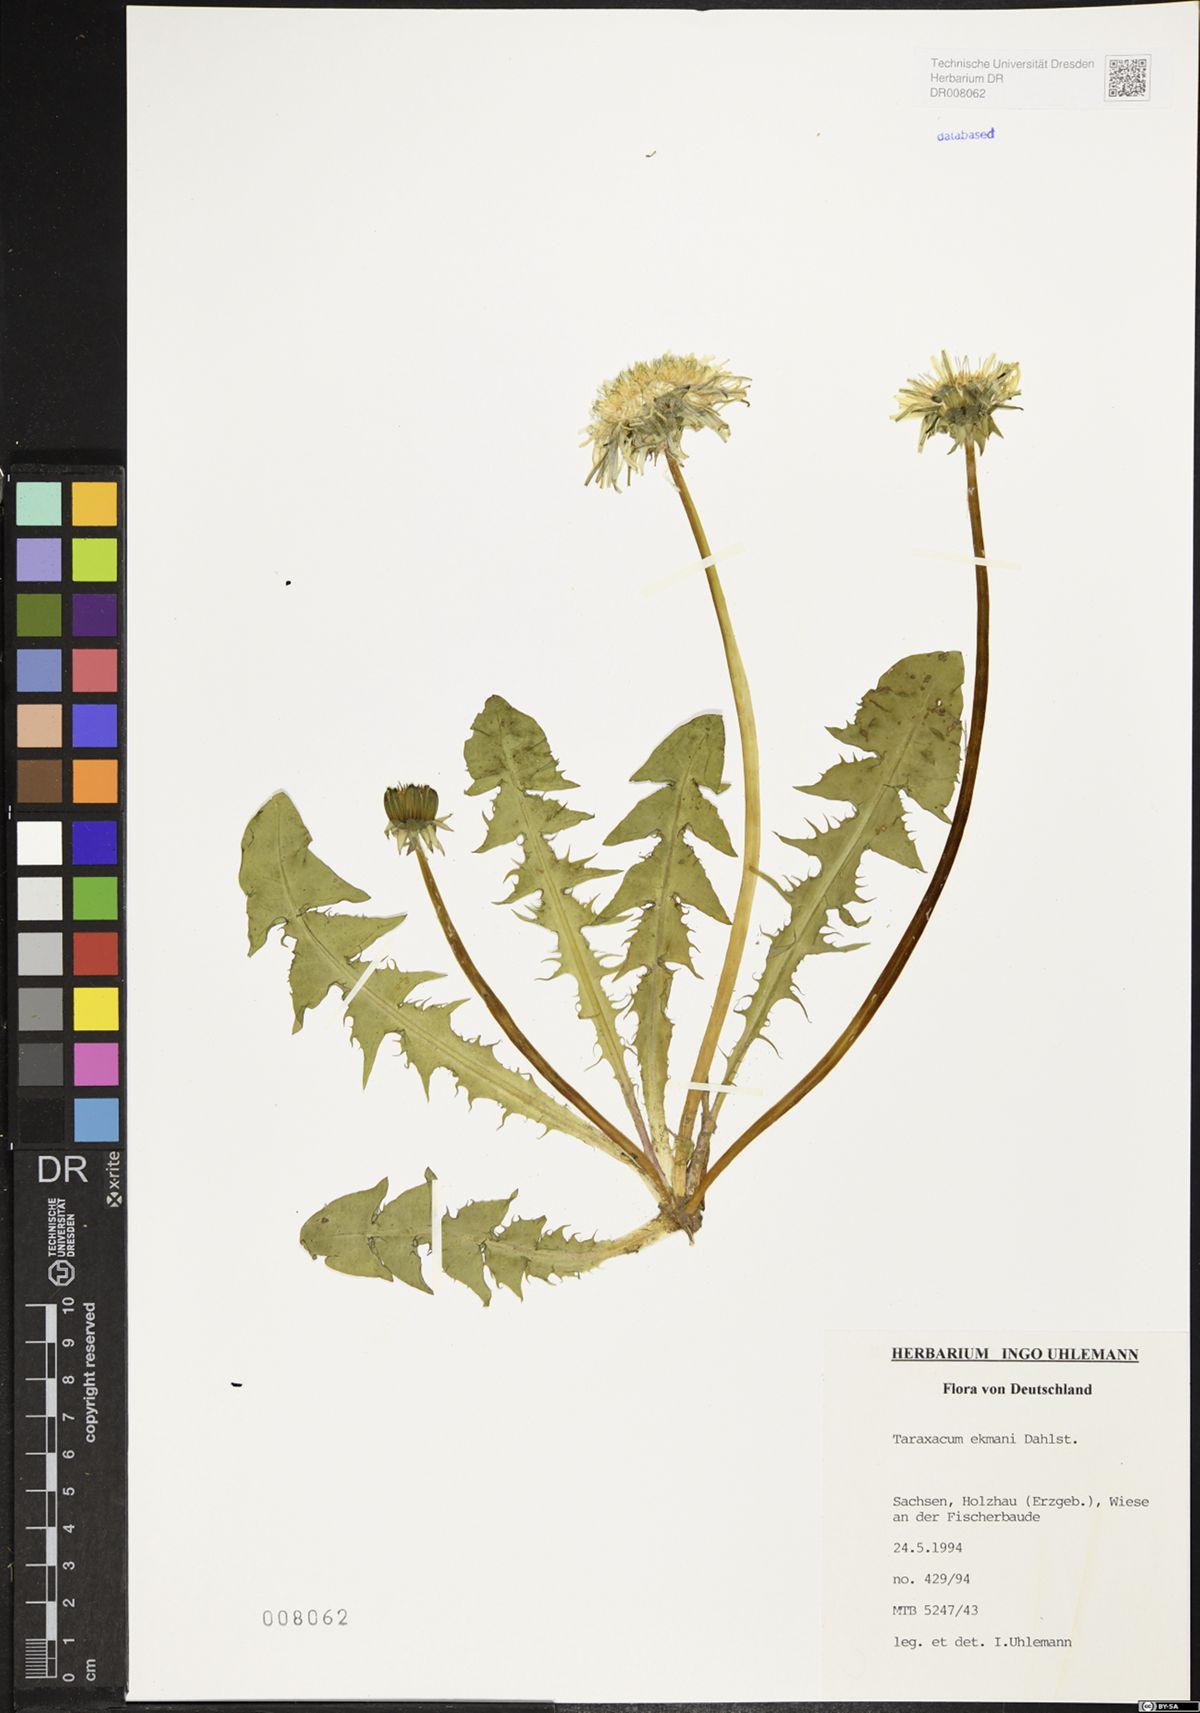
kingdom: Plantae
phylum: Tracheophyta
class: Magnoliopsida
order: Asterales
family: Asteraceae
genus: Taraxacum
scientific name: Taraxacum ekmanii
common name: Ekman's dandelion
